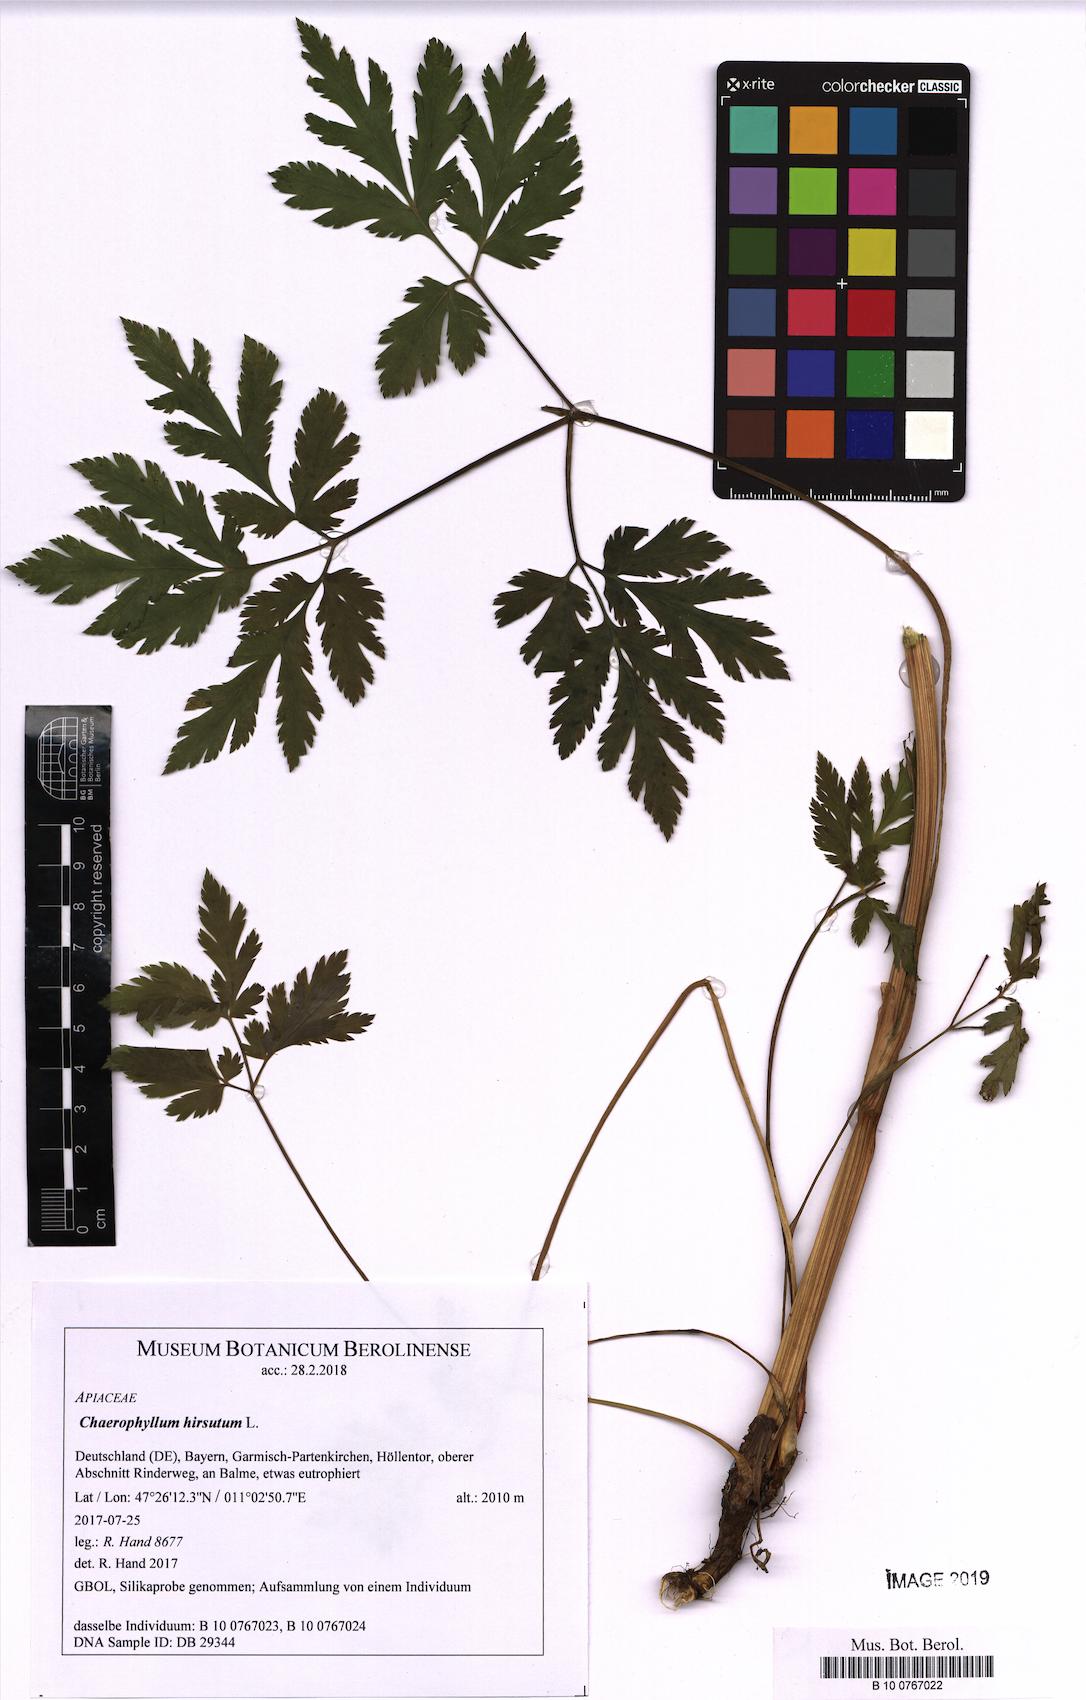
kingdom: Plantae
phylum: Tracheophyta
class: Magnoliopsida
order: Apiales
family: Apiaceae
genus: Chaerophyllum
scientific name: Chaerophyllum hirsutum
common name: Hairy chervil
